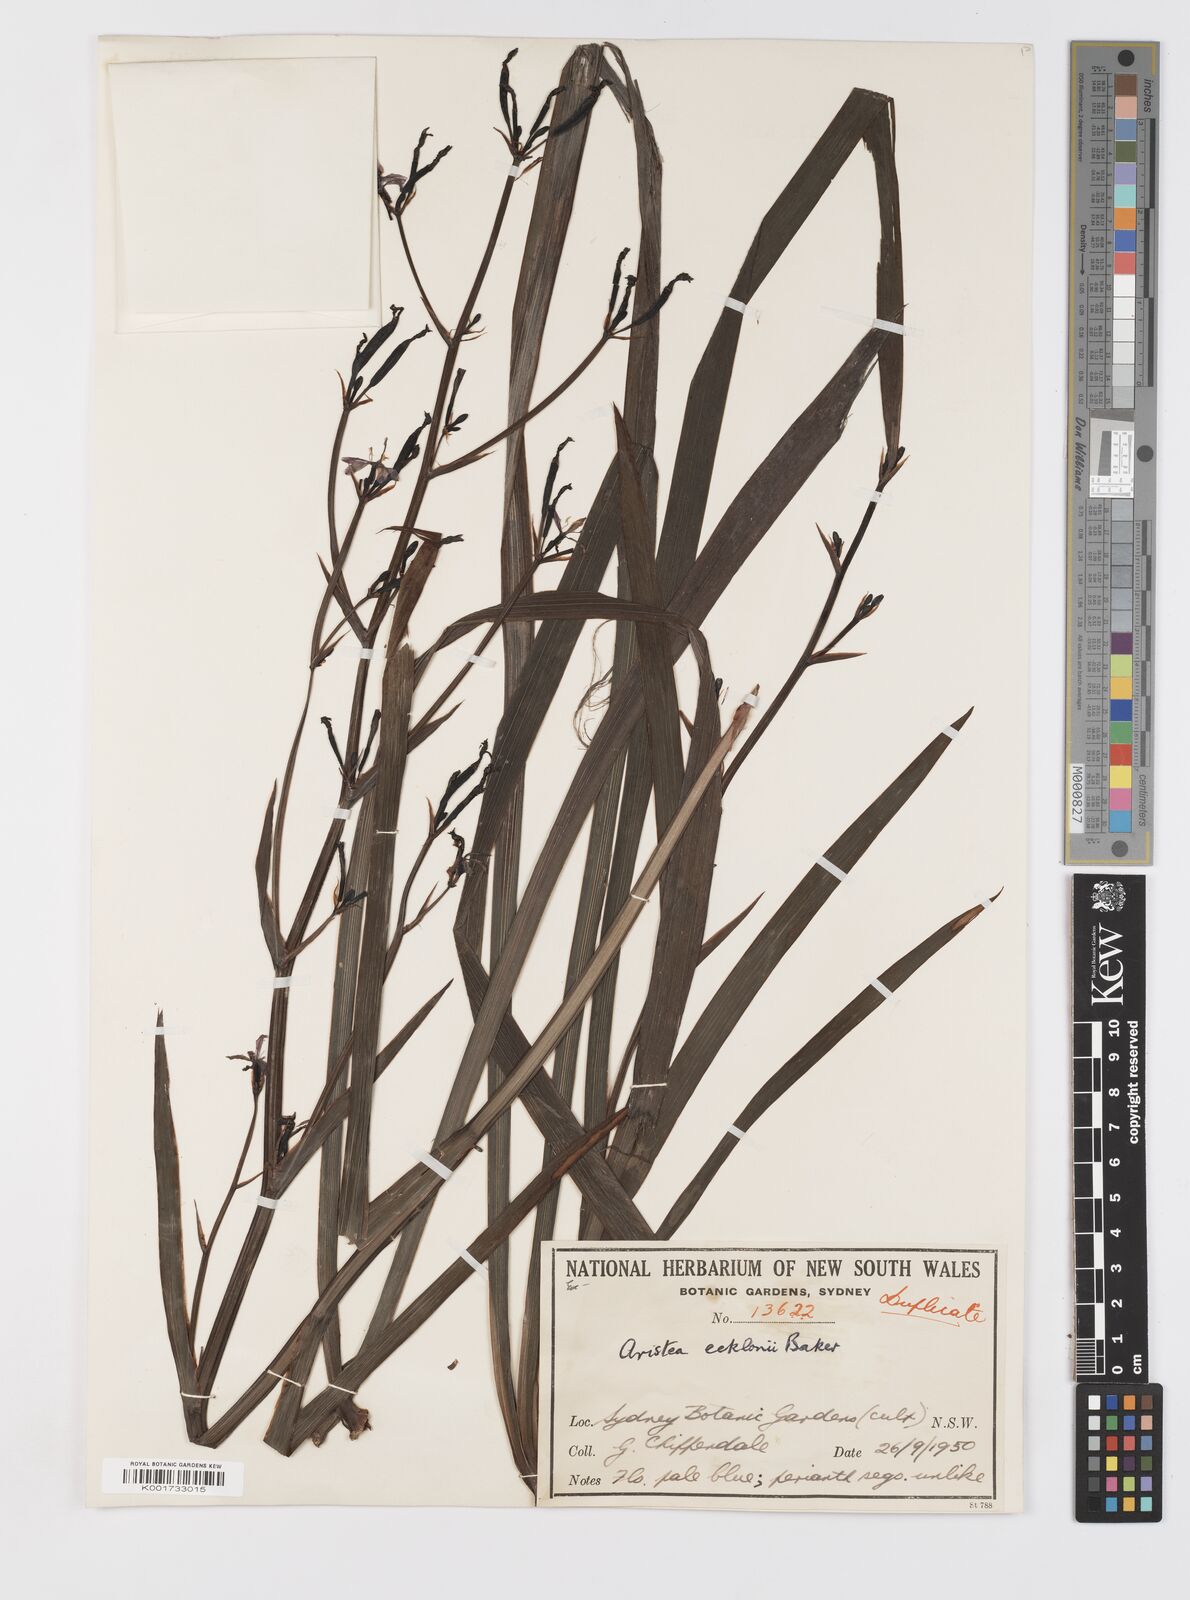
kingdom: Plantae
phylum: Tracheophyta
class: Liliopsida
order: Asparagales
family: Iridaceae
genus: Aristea
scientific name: Aristea ecklonii
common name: Blue corn-lily
